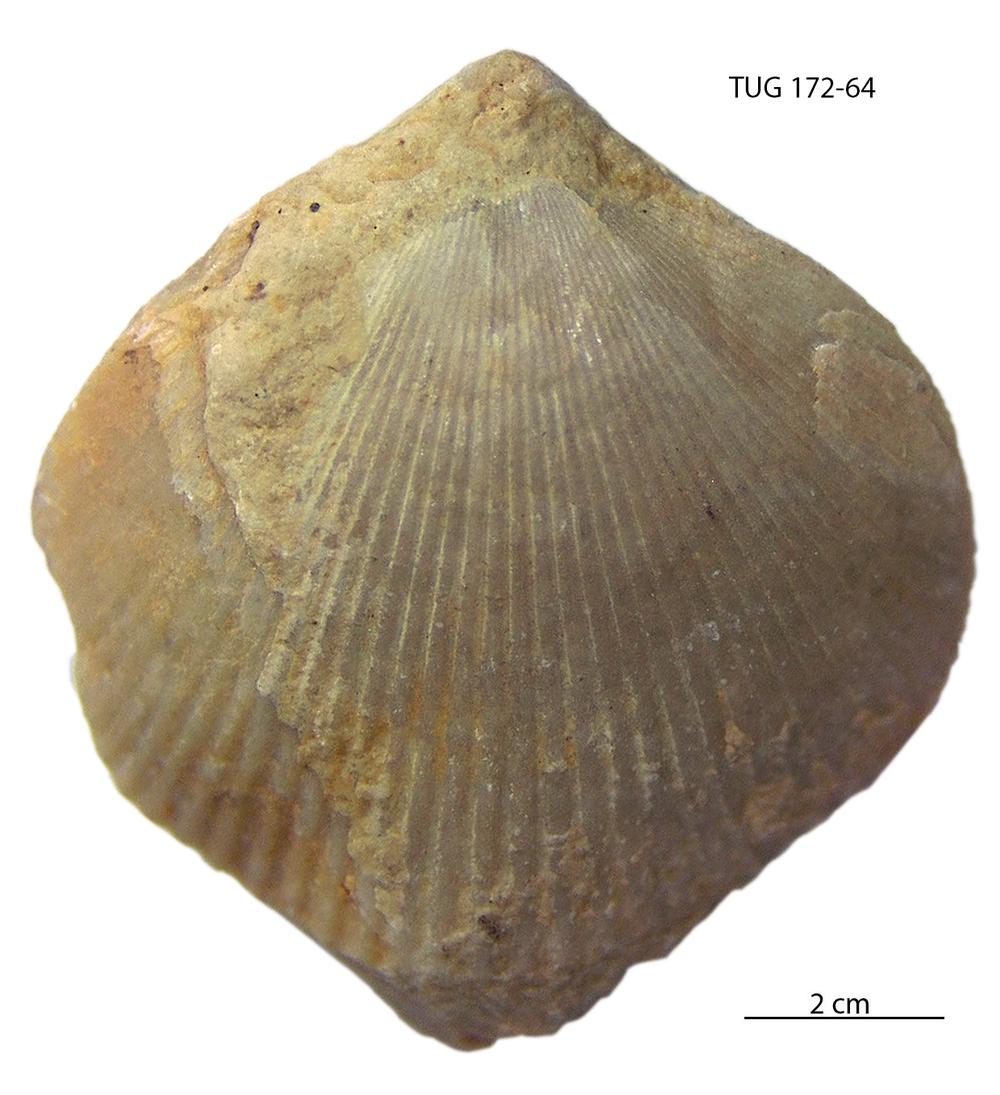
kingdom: Animalia
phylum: Brachiopoda
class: Rhynchonellata
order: Terebratulida
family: Terebratulidae
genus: Terebratula
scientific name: Terebratula livonica
